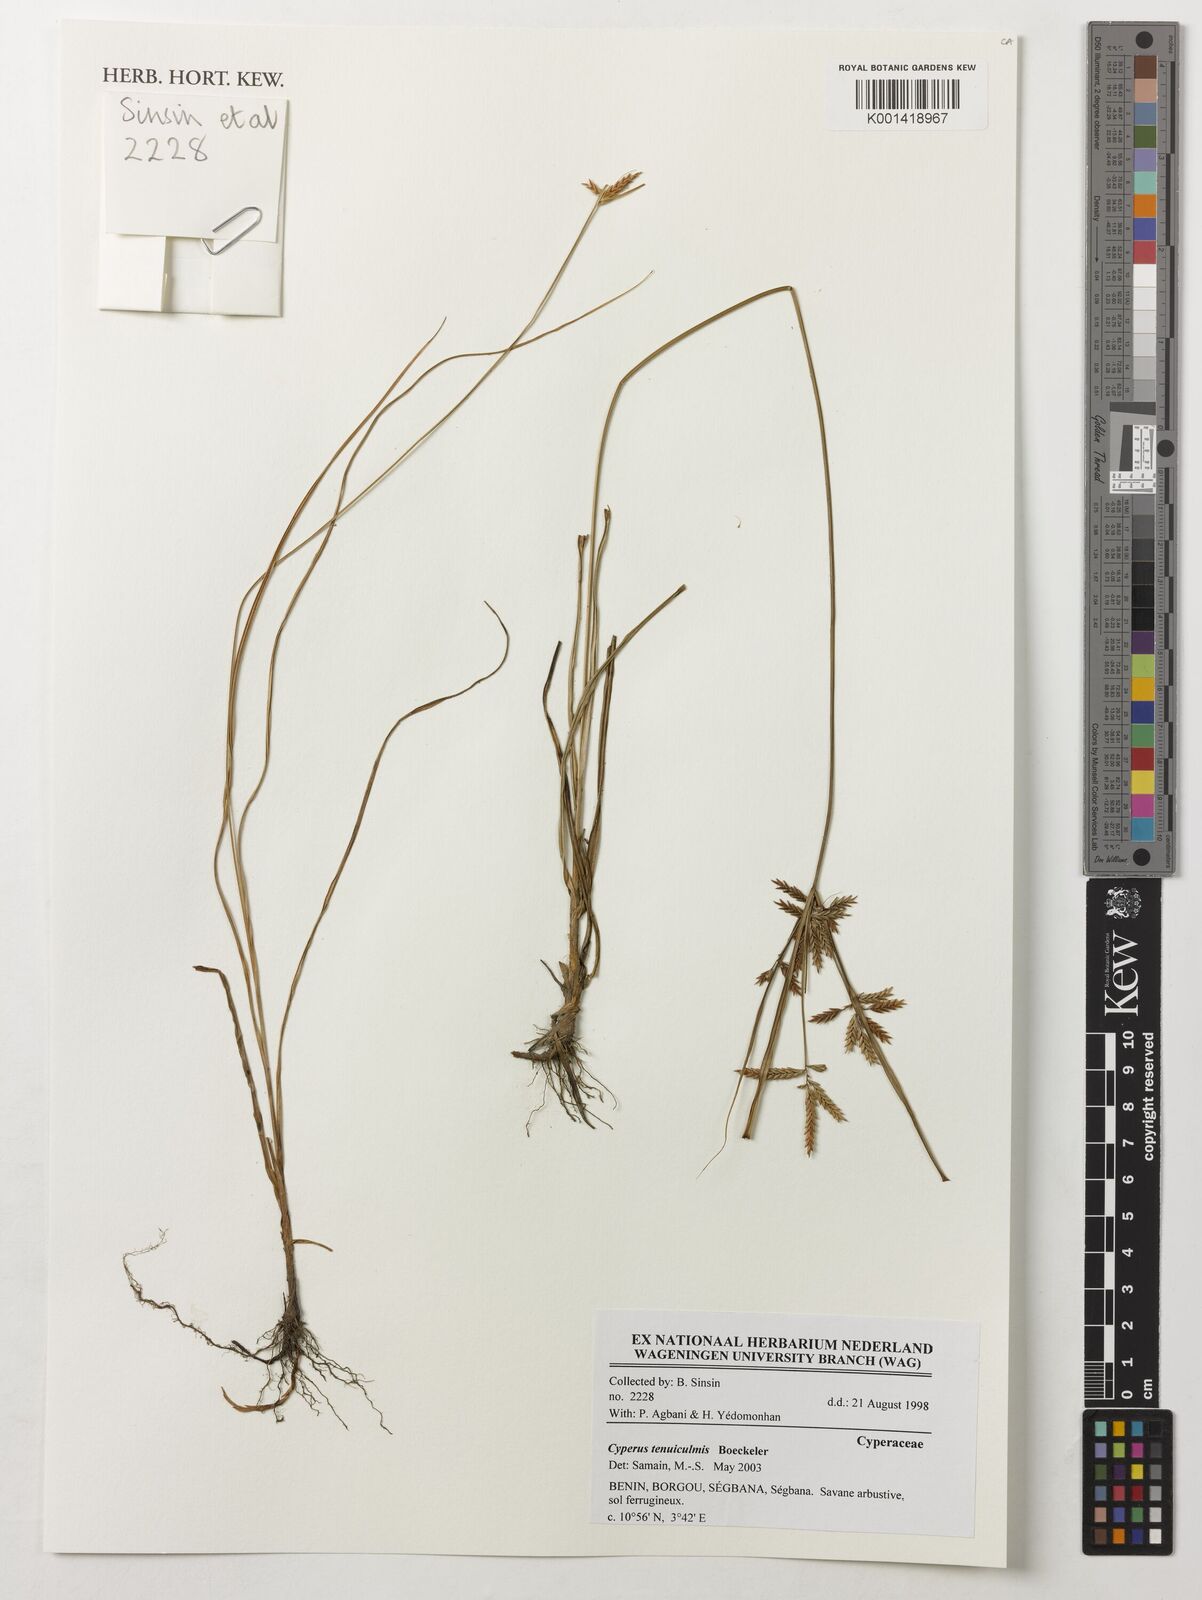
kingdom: Plantae
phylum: Tracheophyta
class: Liliopsida
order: Poales
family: Cyperaceae
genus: Cyperus
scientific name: Cyperus tenuiculmis
